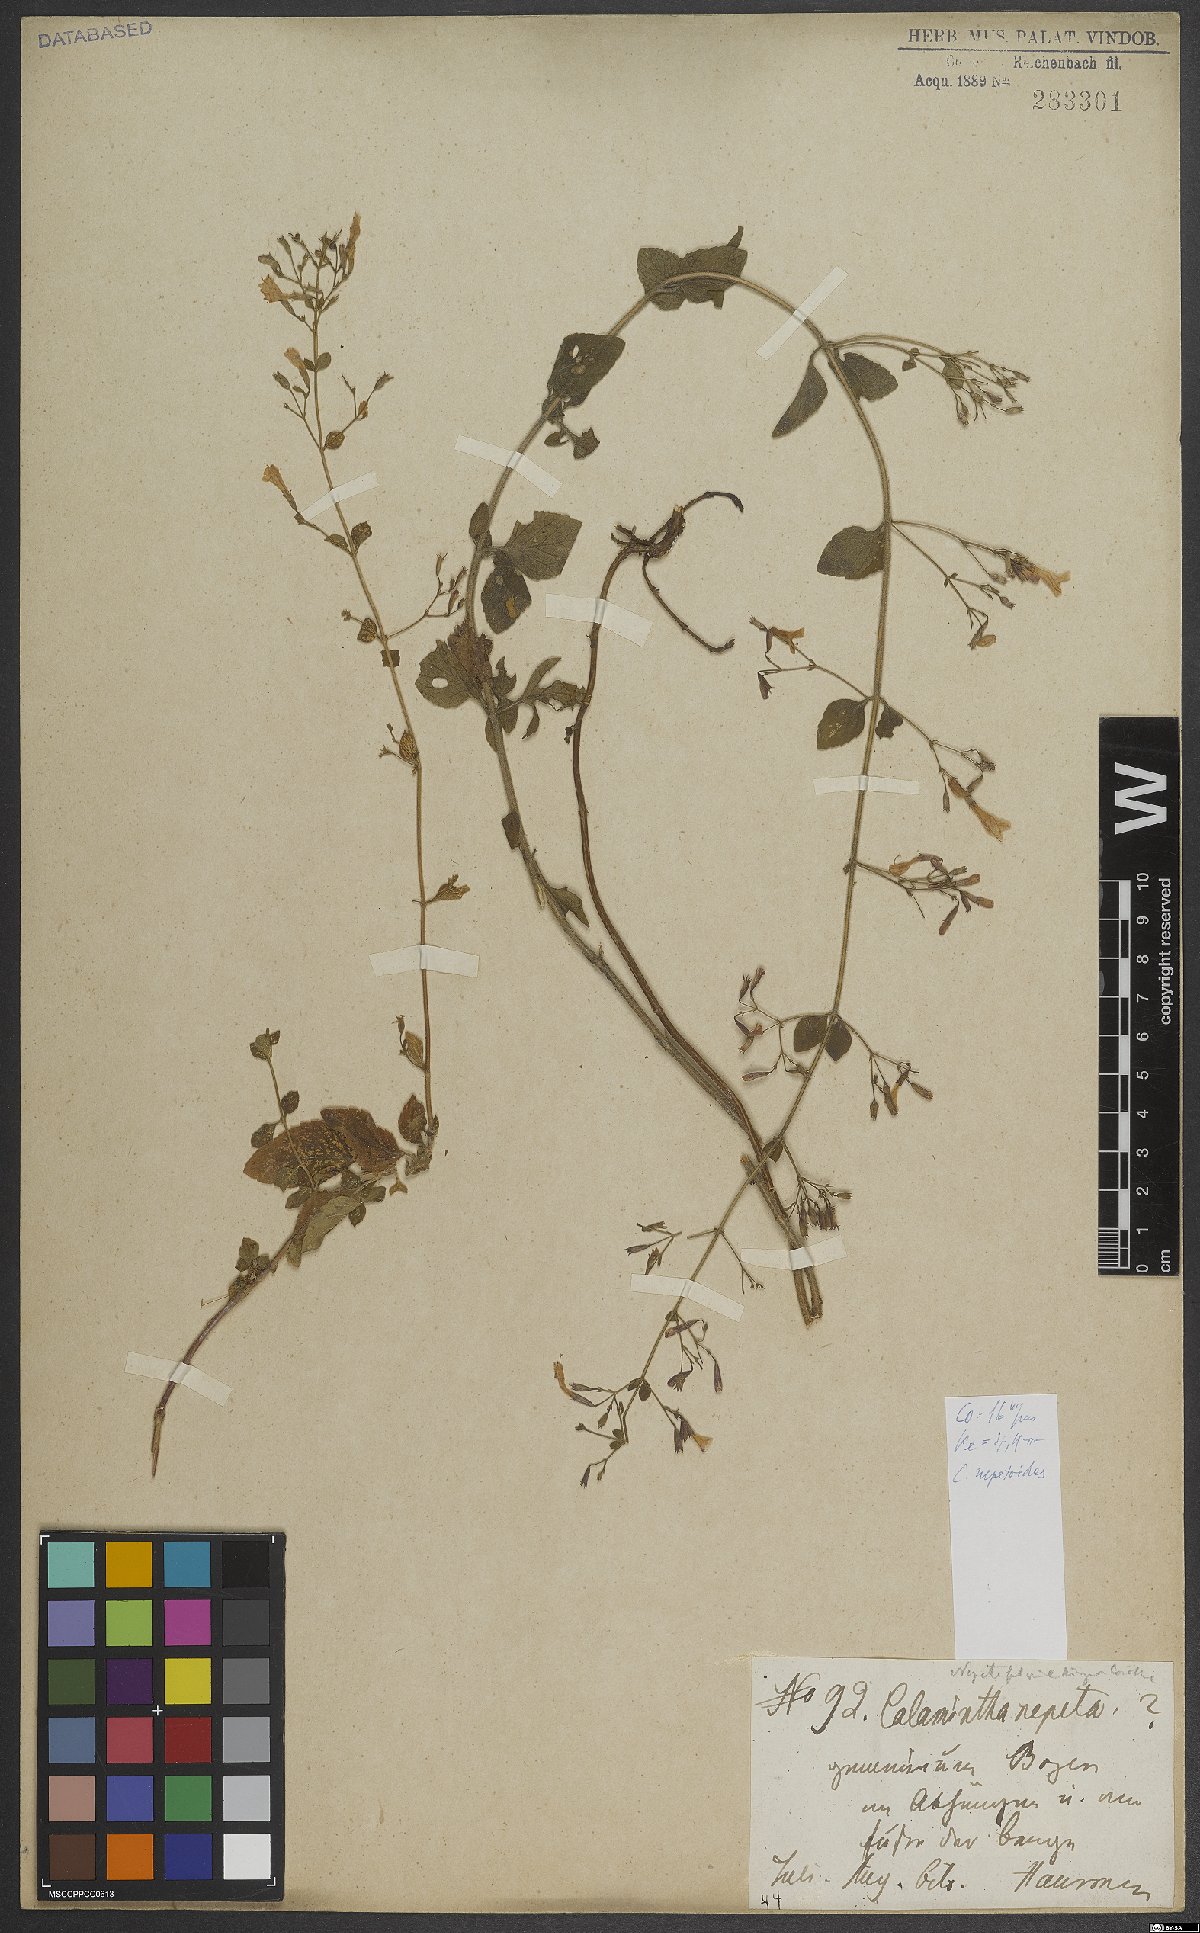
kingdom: Plantae
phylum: Tracheophyta
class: Magnoliopsida
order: Lamiales
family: Lamiaceae
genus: Clinopodium
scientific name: Clinopodium nepeta
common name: Lesser calamint
